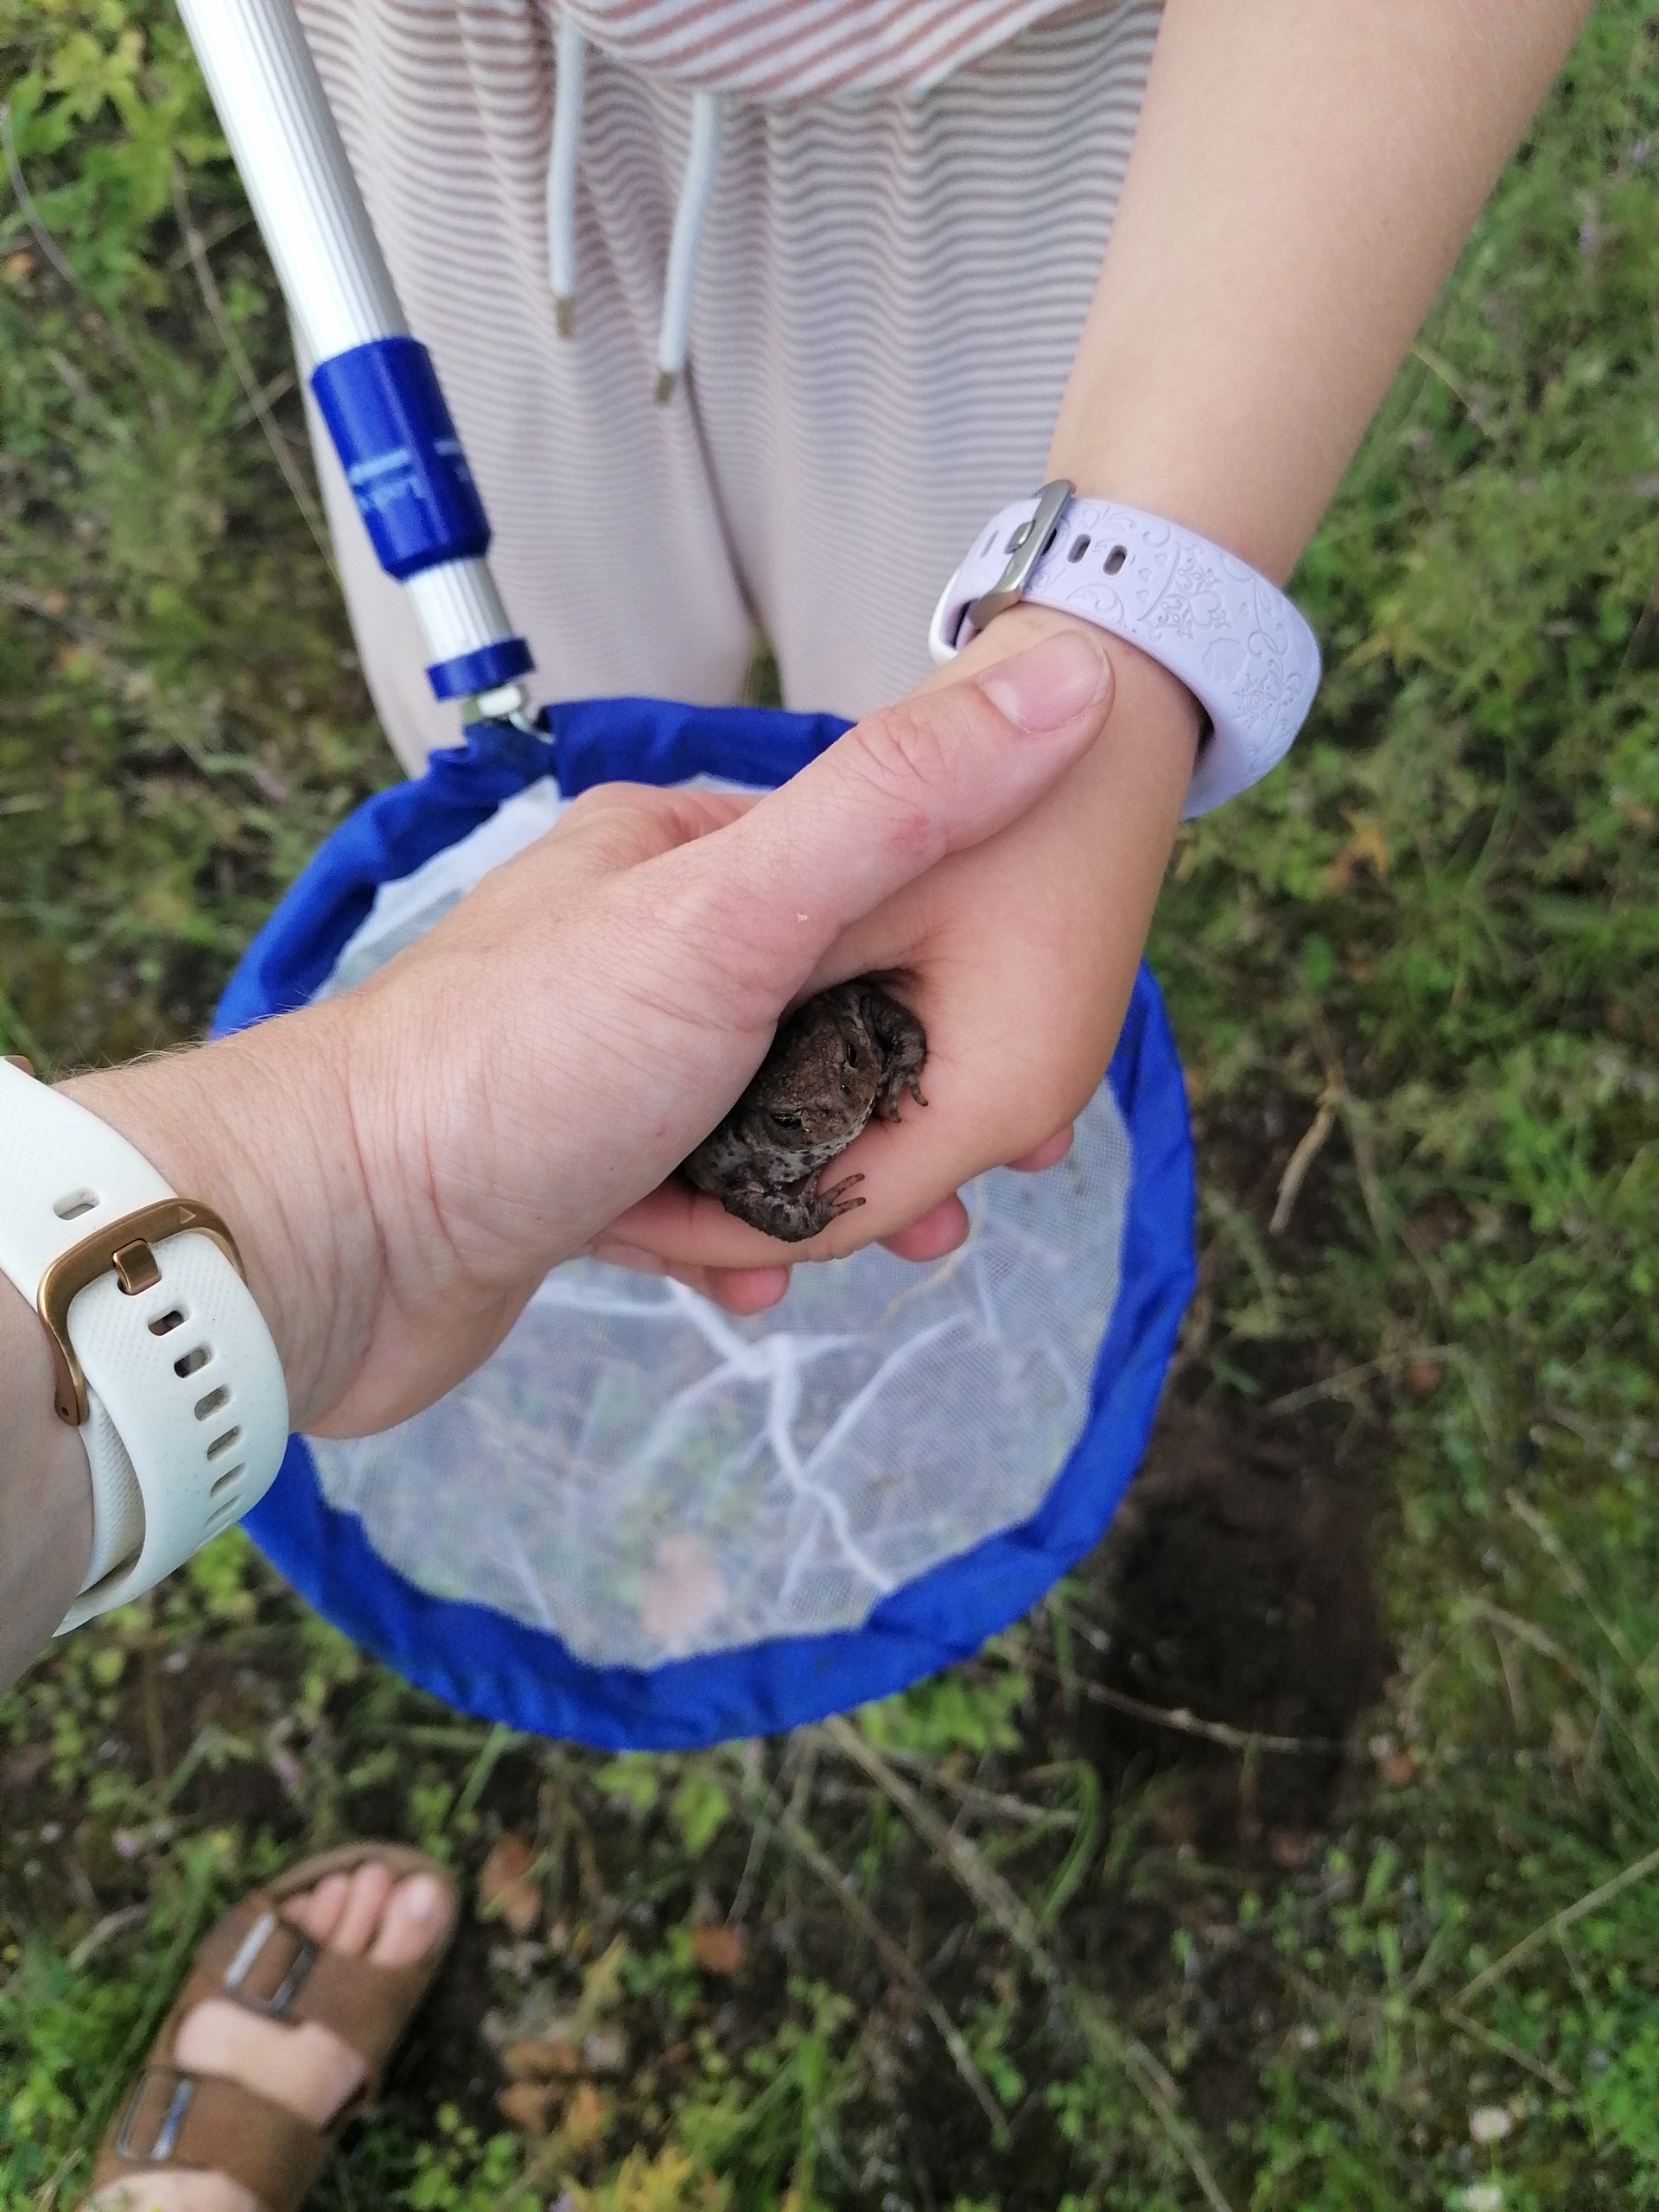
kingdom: Animalia
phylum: Chordata
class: Amphibia
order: Anura
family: Bufonidae
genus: Bufo
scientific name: Bufo bufo
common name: Skrubtudse
